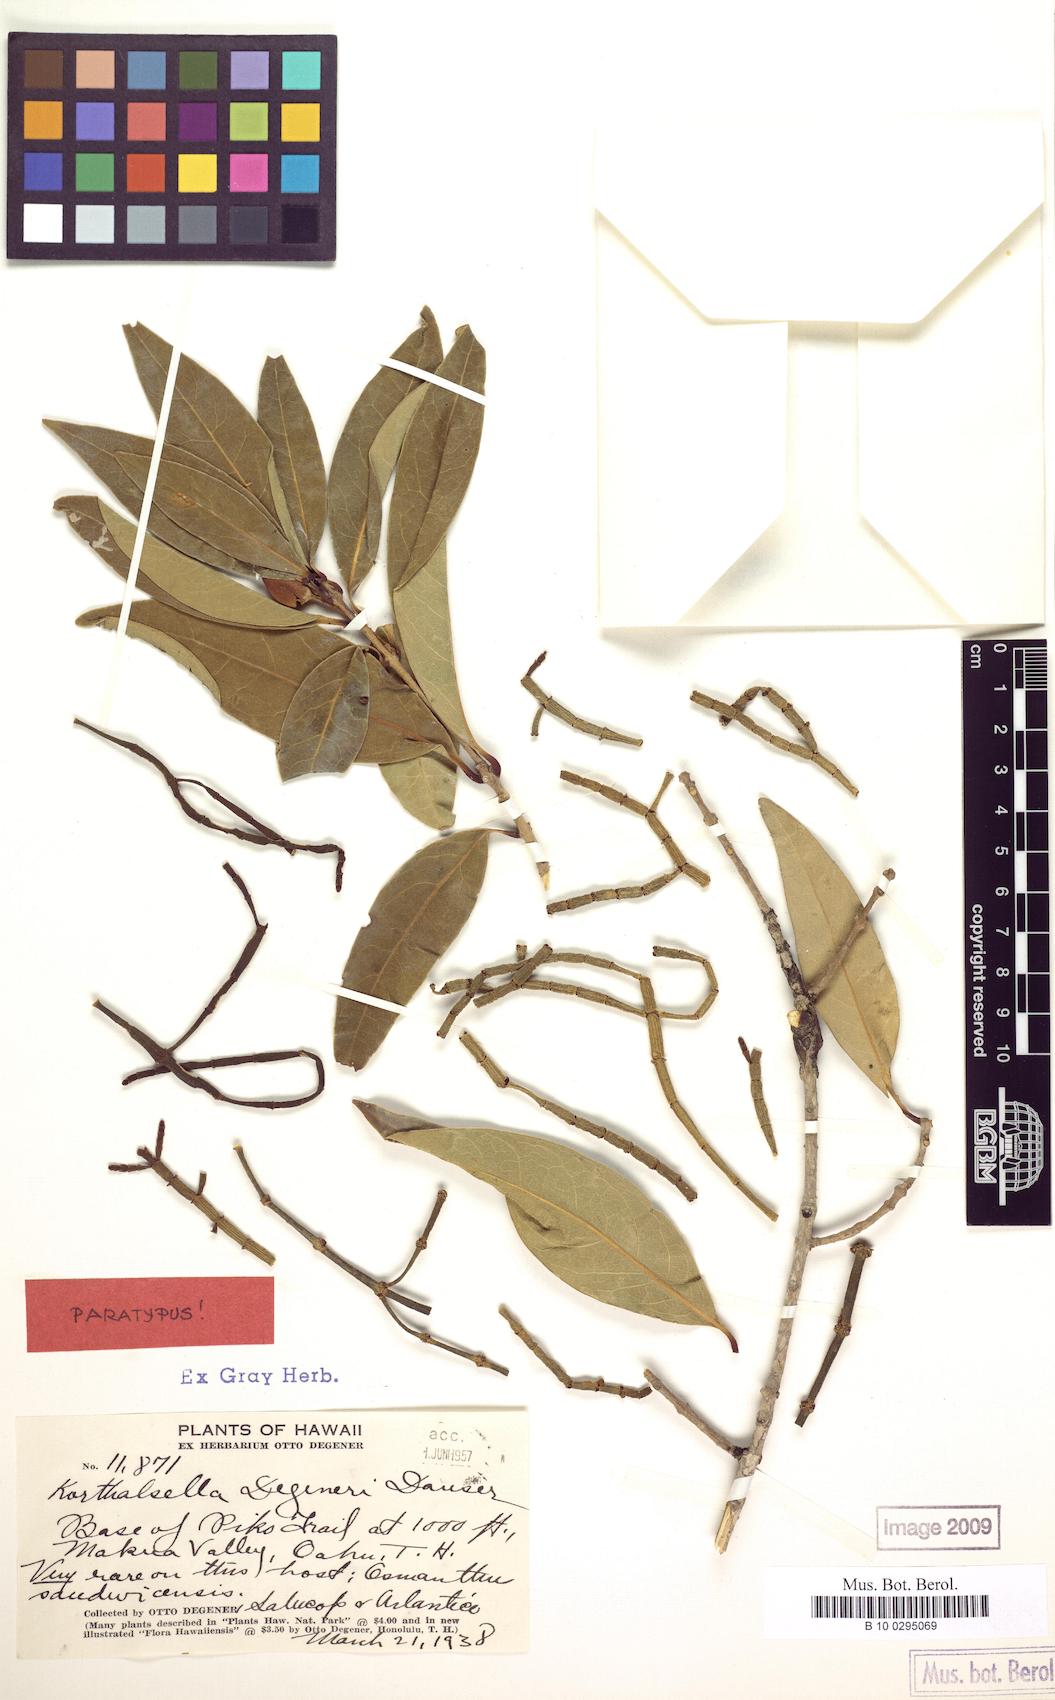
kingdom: Plantae
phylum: Tracheophyta
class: Magnoliopsida
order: Santalales
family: Viscaceae
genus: Korthalsella
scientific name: Korthalsella degeneri
